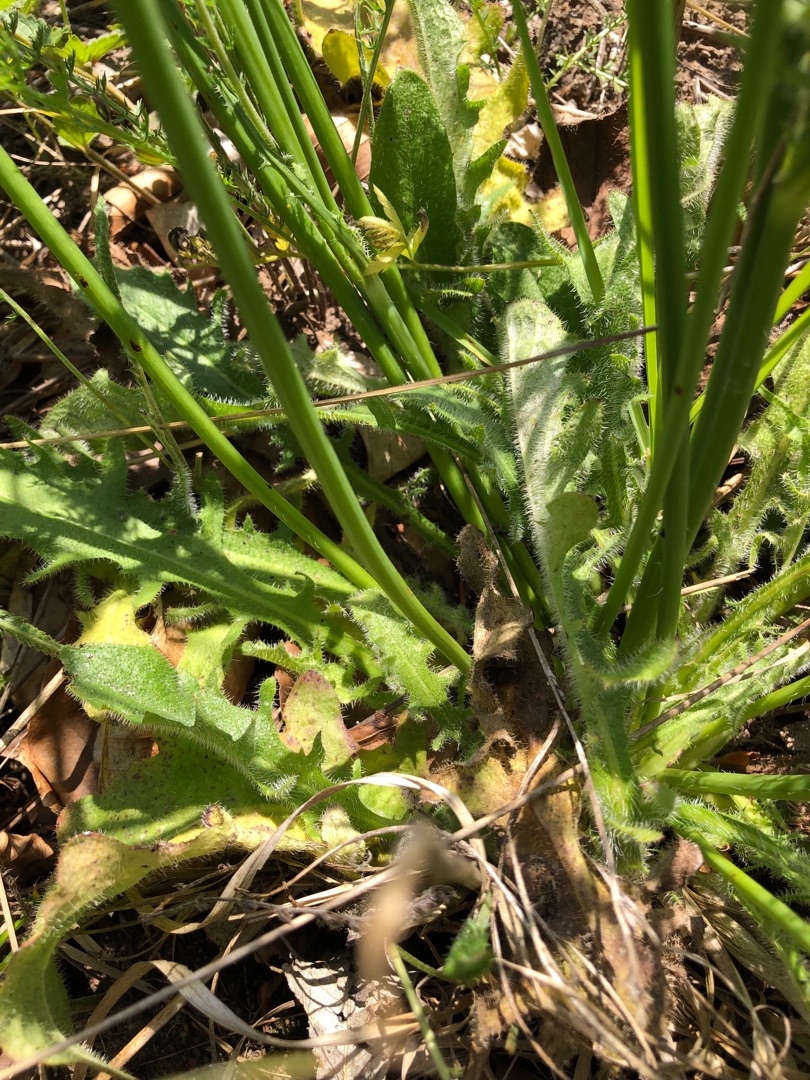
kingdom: Plantae
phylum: Tracheophyta
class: Magnoliopsida
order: Asterales
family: Asteraceae
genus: Hypochaeris
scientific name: Hypochaeris radicata
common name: Almindelig kongepen
